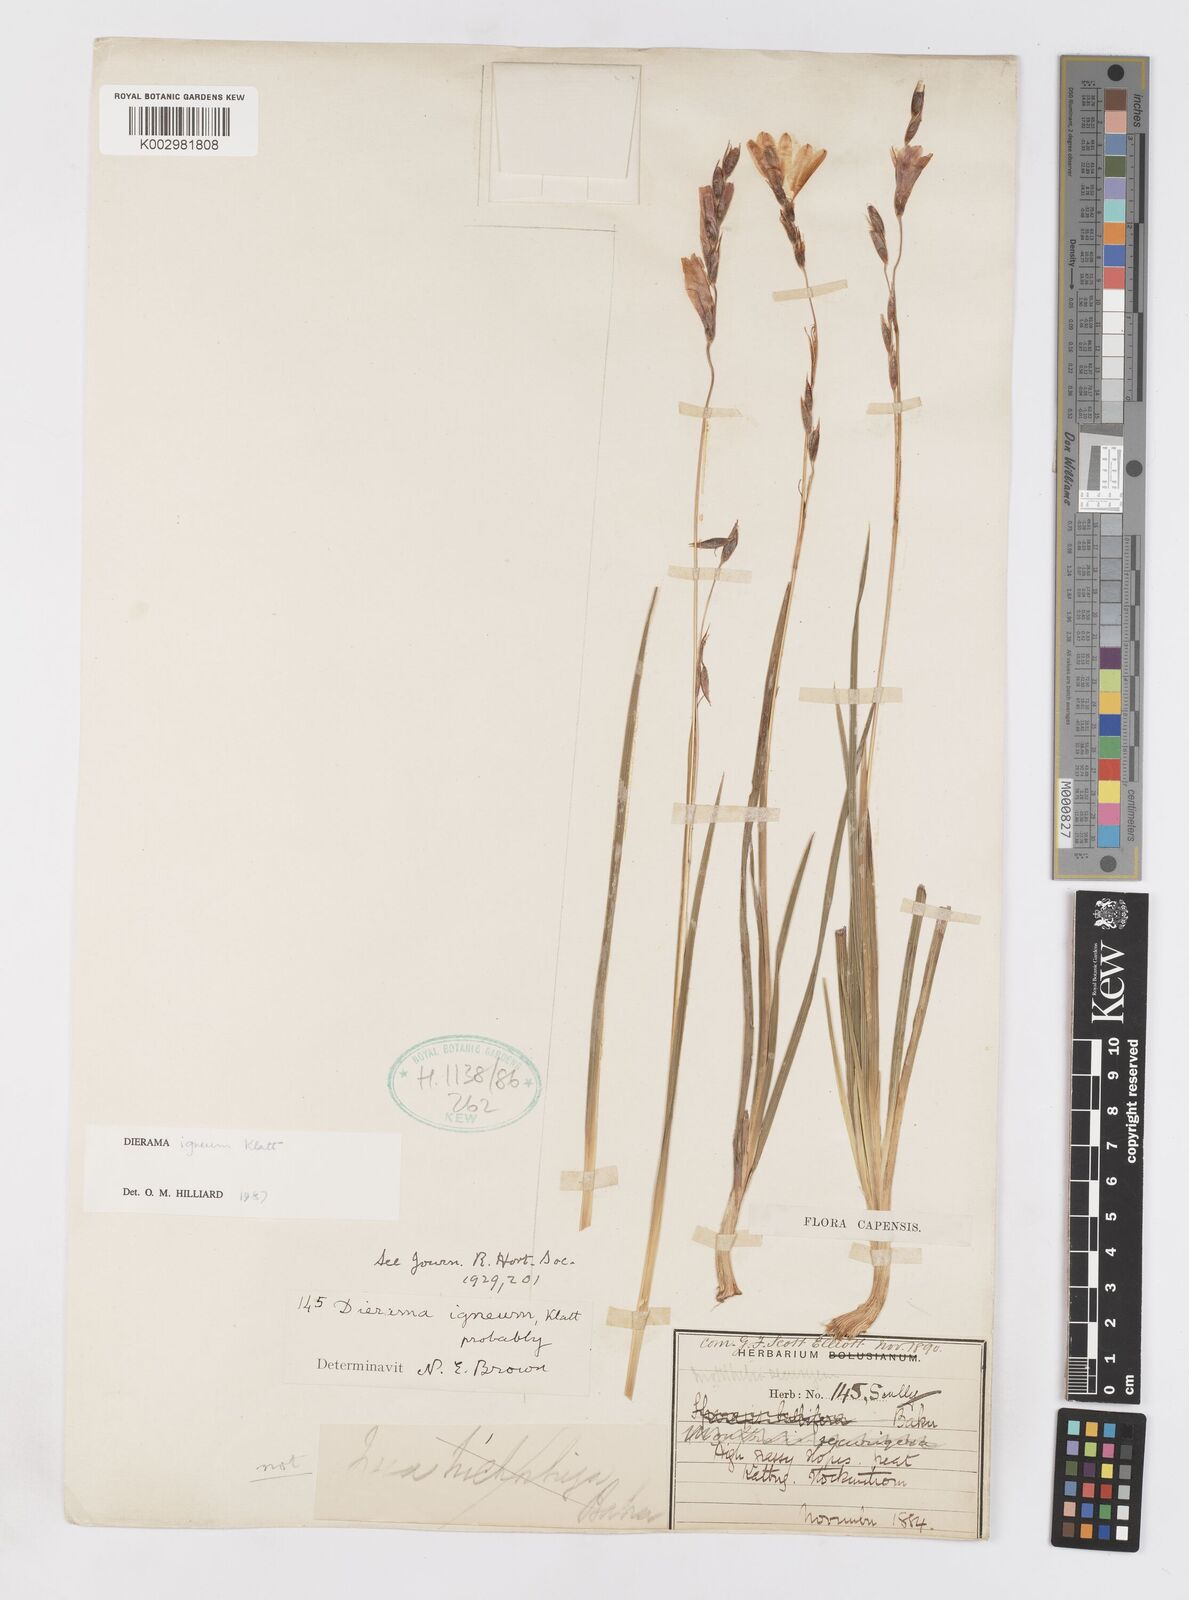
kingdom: Plantae
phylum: Tracheophyta
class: Liliopsida
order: Asparagales
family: Iridaceae
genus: Dierama
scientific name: Dierama igneum
